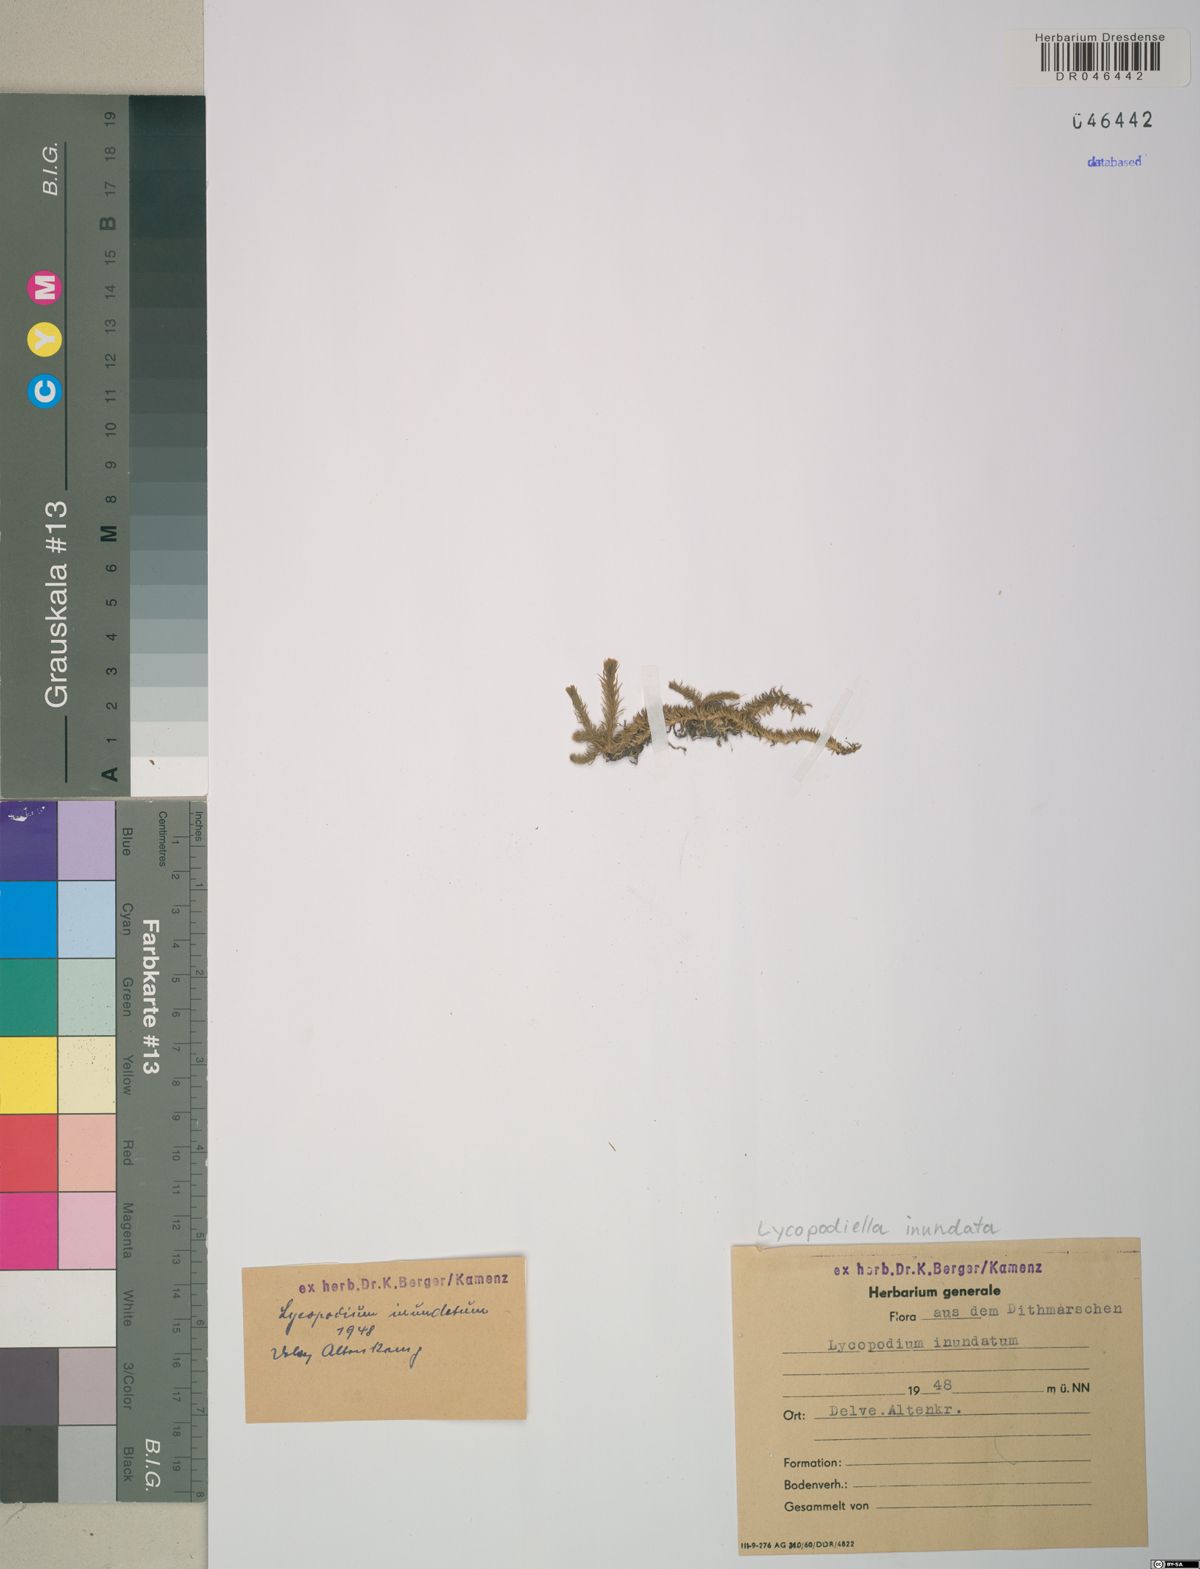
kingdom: Plantae
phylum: Tracheophyta
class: Lycopodiopsida
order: Lycopodiales
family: Lycopodiaceae
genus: Lycopodiella
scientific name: Lycopodiella inundata
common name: Marsh clubmoss
